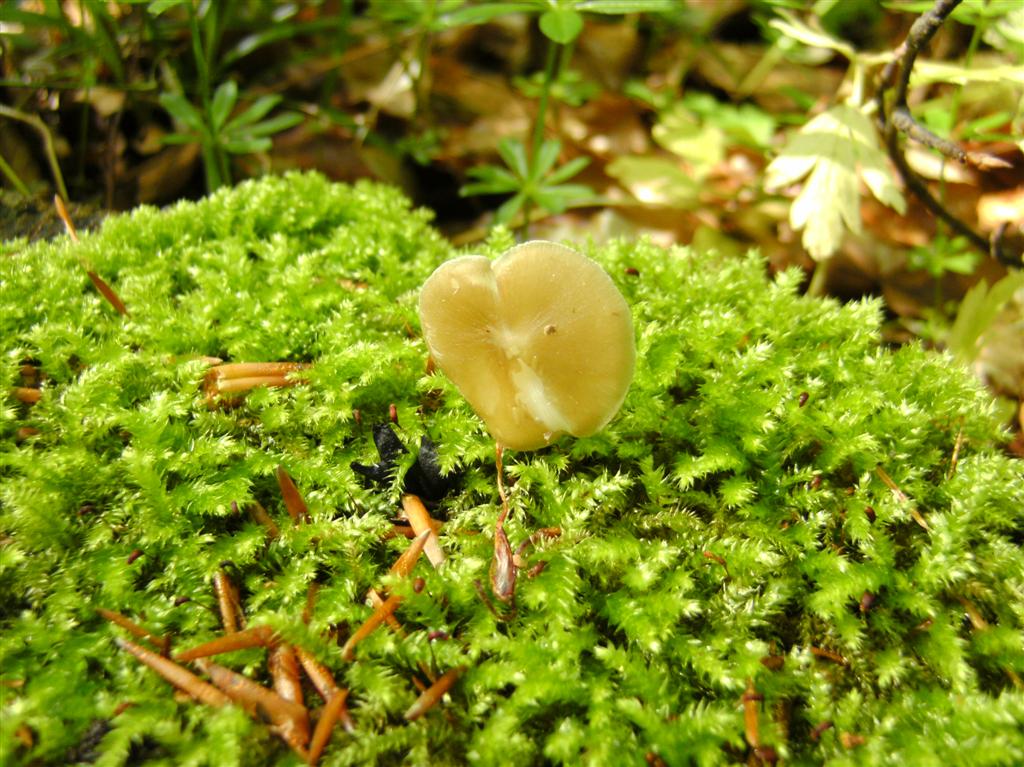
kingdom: Fungi
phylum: Basidiomycota
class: Agaricomycetes
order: Agaricales
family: Porotheleaceae
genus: Hydropodia
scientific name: Hydropodia subalpina
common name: vår-fnugfod
